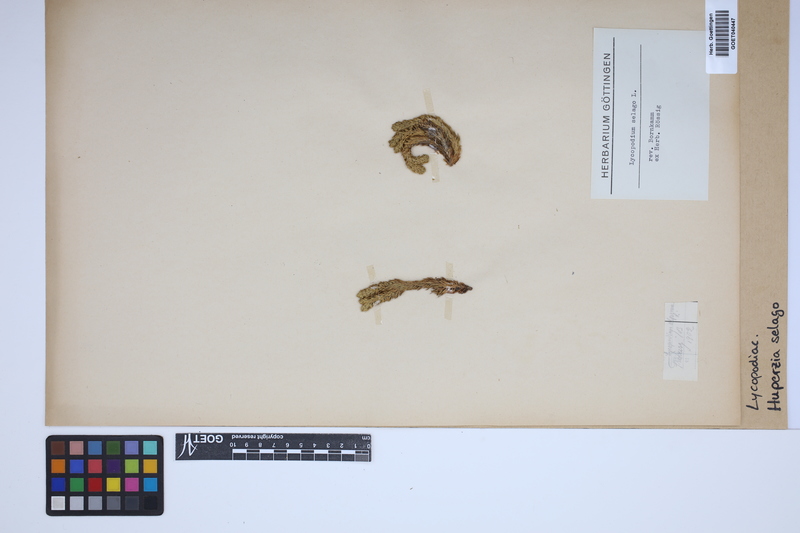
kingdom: Plantae
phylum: Tracheophyta
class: Lycopodiopsida
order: Lycopodiales
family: Lycopodiaceae
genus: Huperzia
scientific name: Huperzia selago
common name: Northern firmoss
